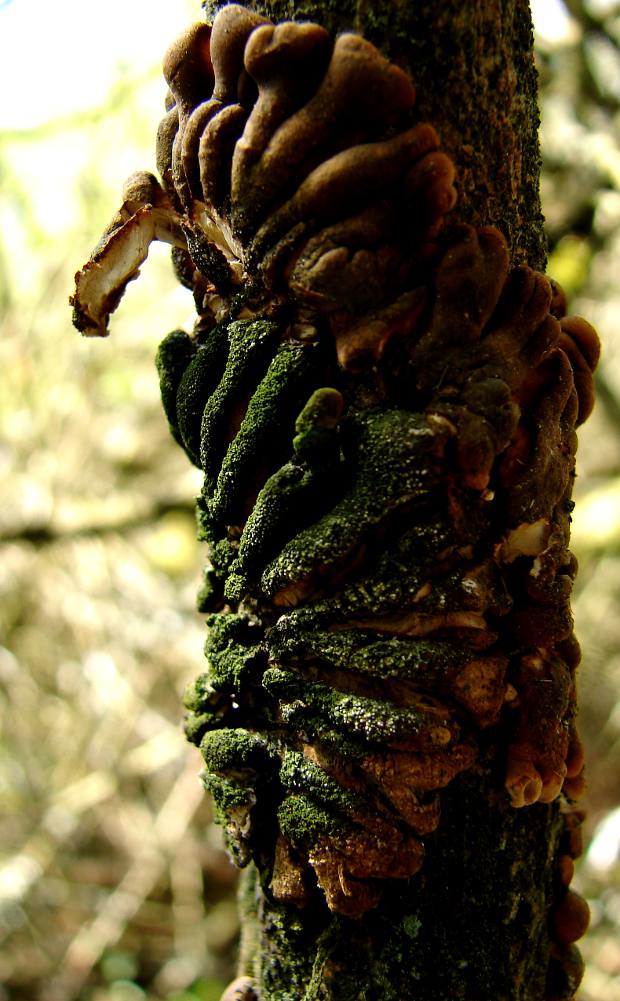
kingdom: Fungi
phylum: Ascomycota
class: Sordariomycetes
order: Hypocreales
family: Hypocreaceae
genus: Hypocreopsis
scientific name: Hypocreopsis lichenoides
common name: pilfinger
